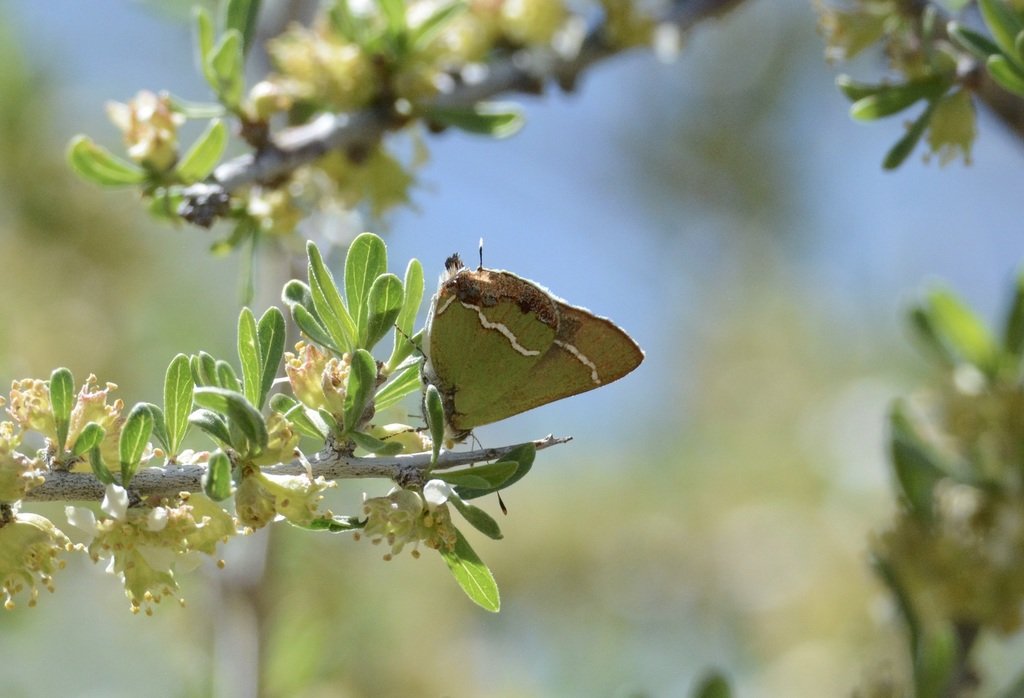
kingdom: Animalia
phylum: Arthropoda
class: Insecta
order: Lepidoptera
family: Lycaenidae
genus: Chlorostrymon
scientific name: Chlorostrymon simaethis
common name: Silver-banded Hairstreak
